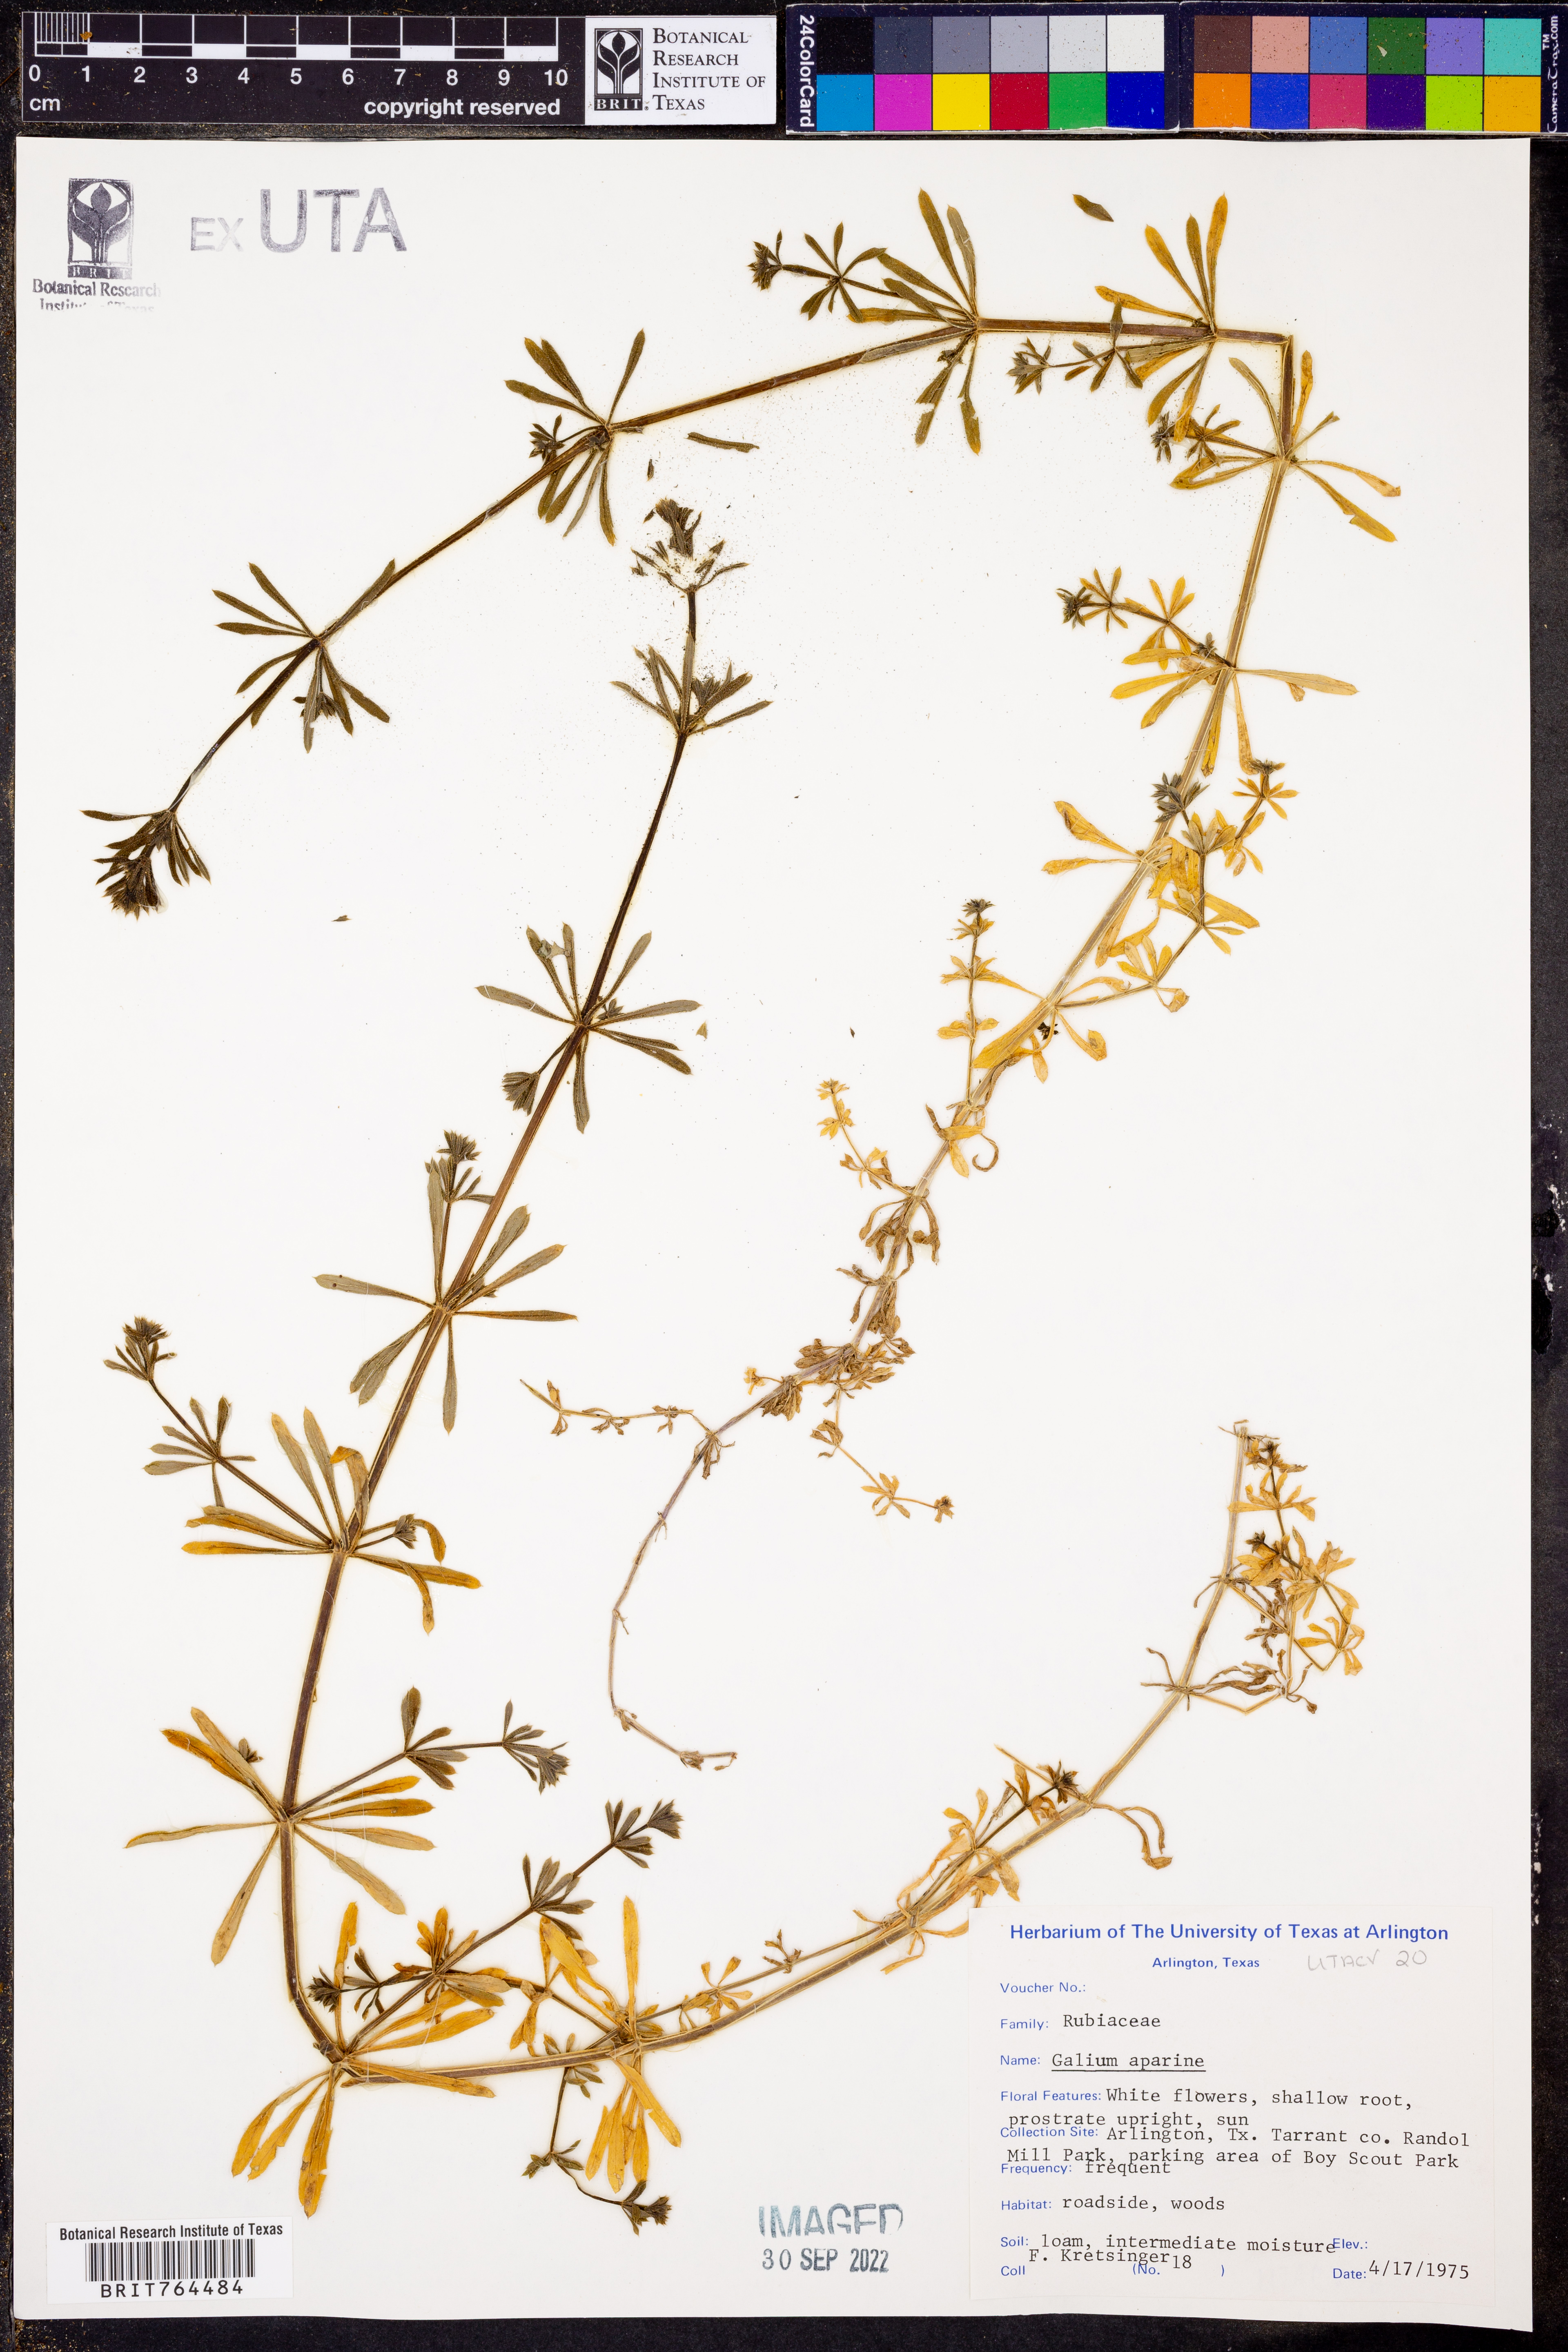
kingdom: Plantae
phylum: Tracheophyta
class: Magnoliopsida
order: Gentianales
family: Rubiaceae
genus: Galium
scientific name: Galium aparine
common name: Cleavers
